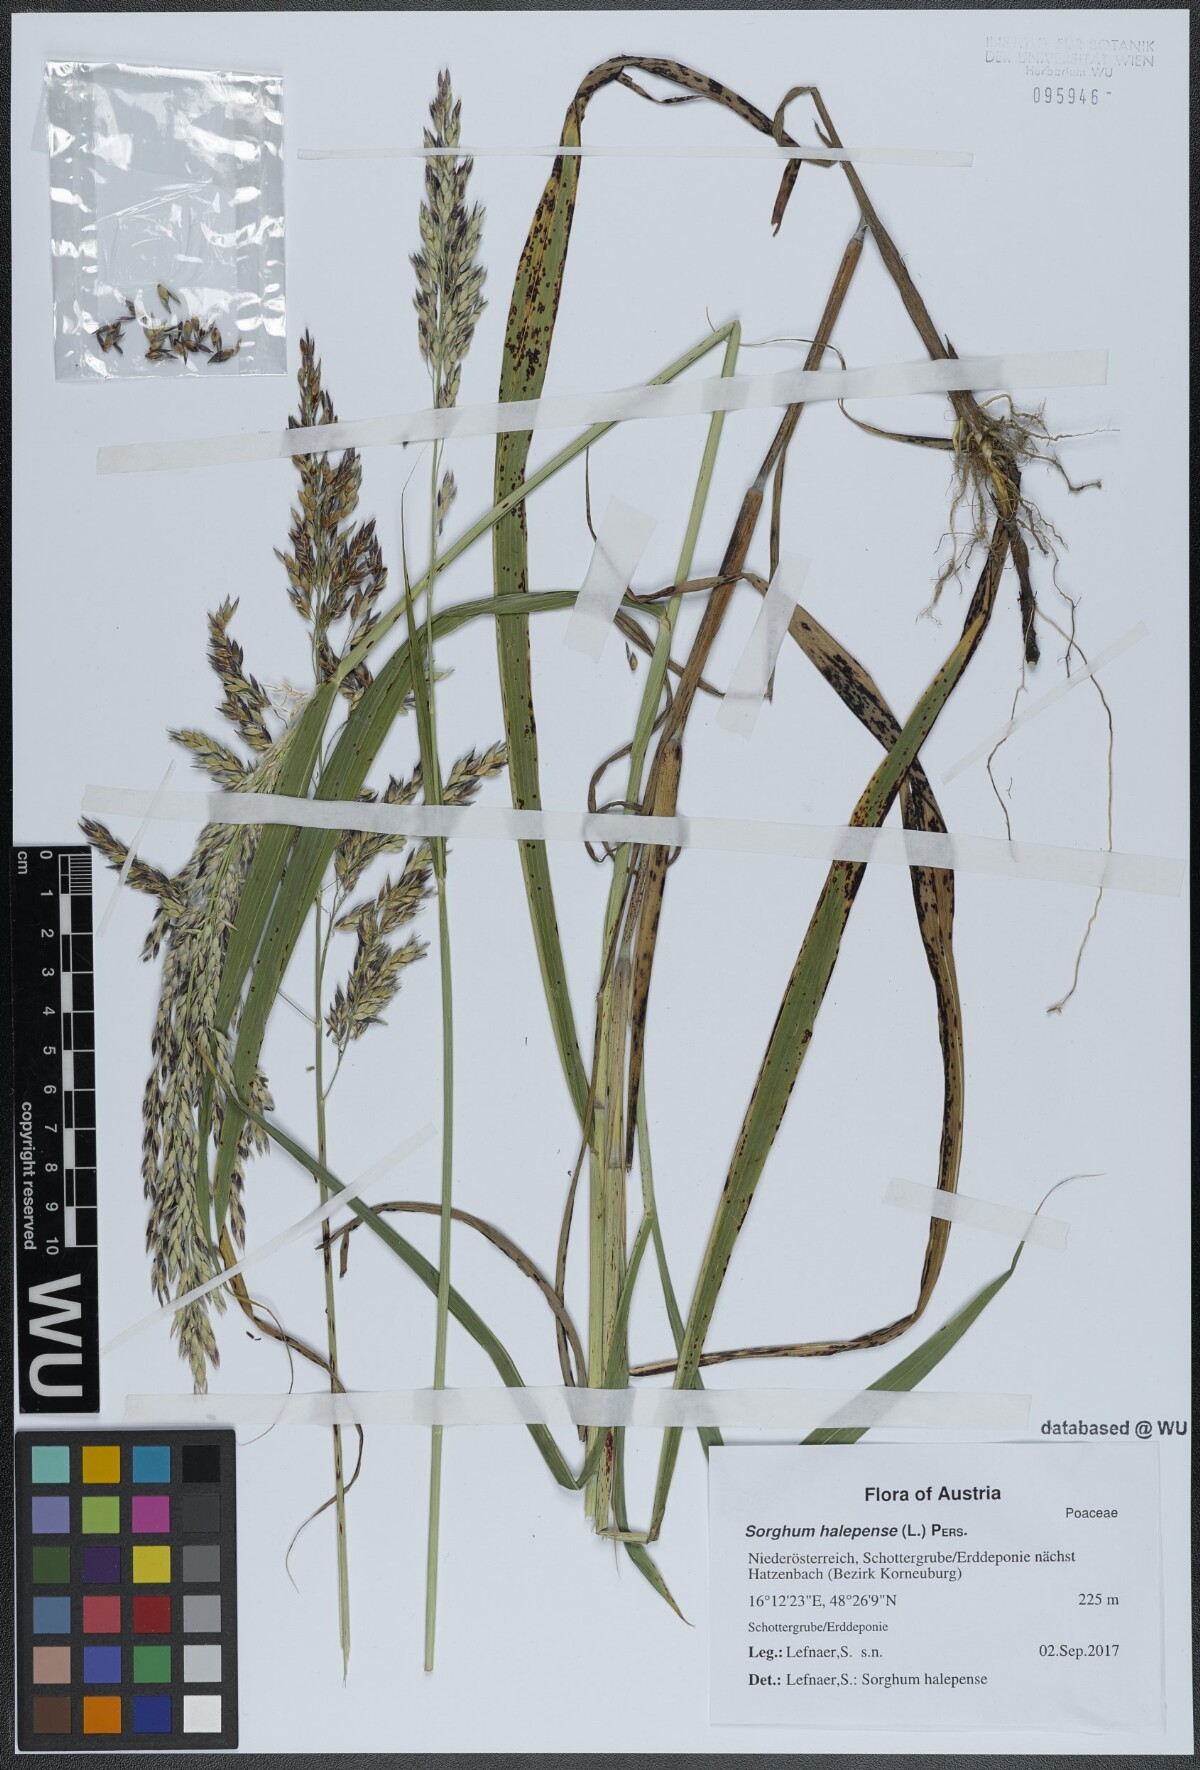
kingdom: Plantae
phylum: Tracheophyta
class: Liliopsida
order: Poales
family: Poaceae
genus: Sorghum
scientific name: Sorghum halepense
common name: Johnson-grass
